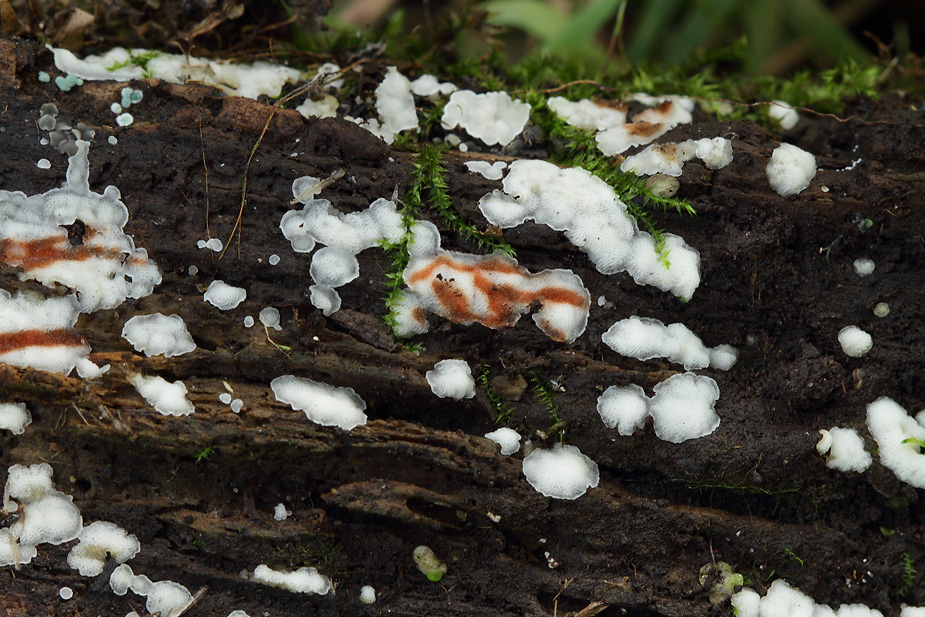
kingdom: Fungi
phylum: Basidiomycota
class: Agaricomycetes
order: Polyporales
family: Meripilaceae
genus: Rigidoporus
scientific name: Rigidoporus sanguinolentus
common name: blod-skorpeporesvamp
